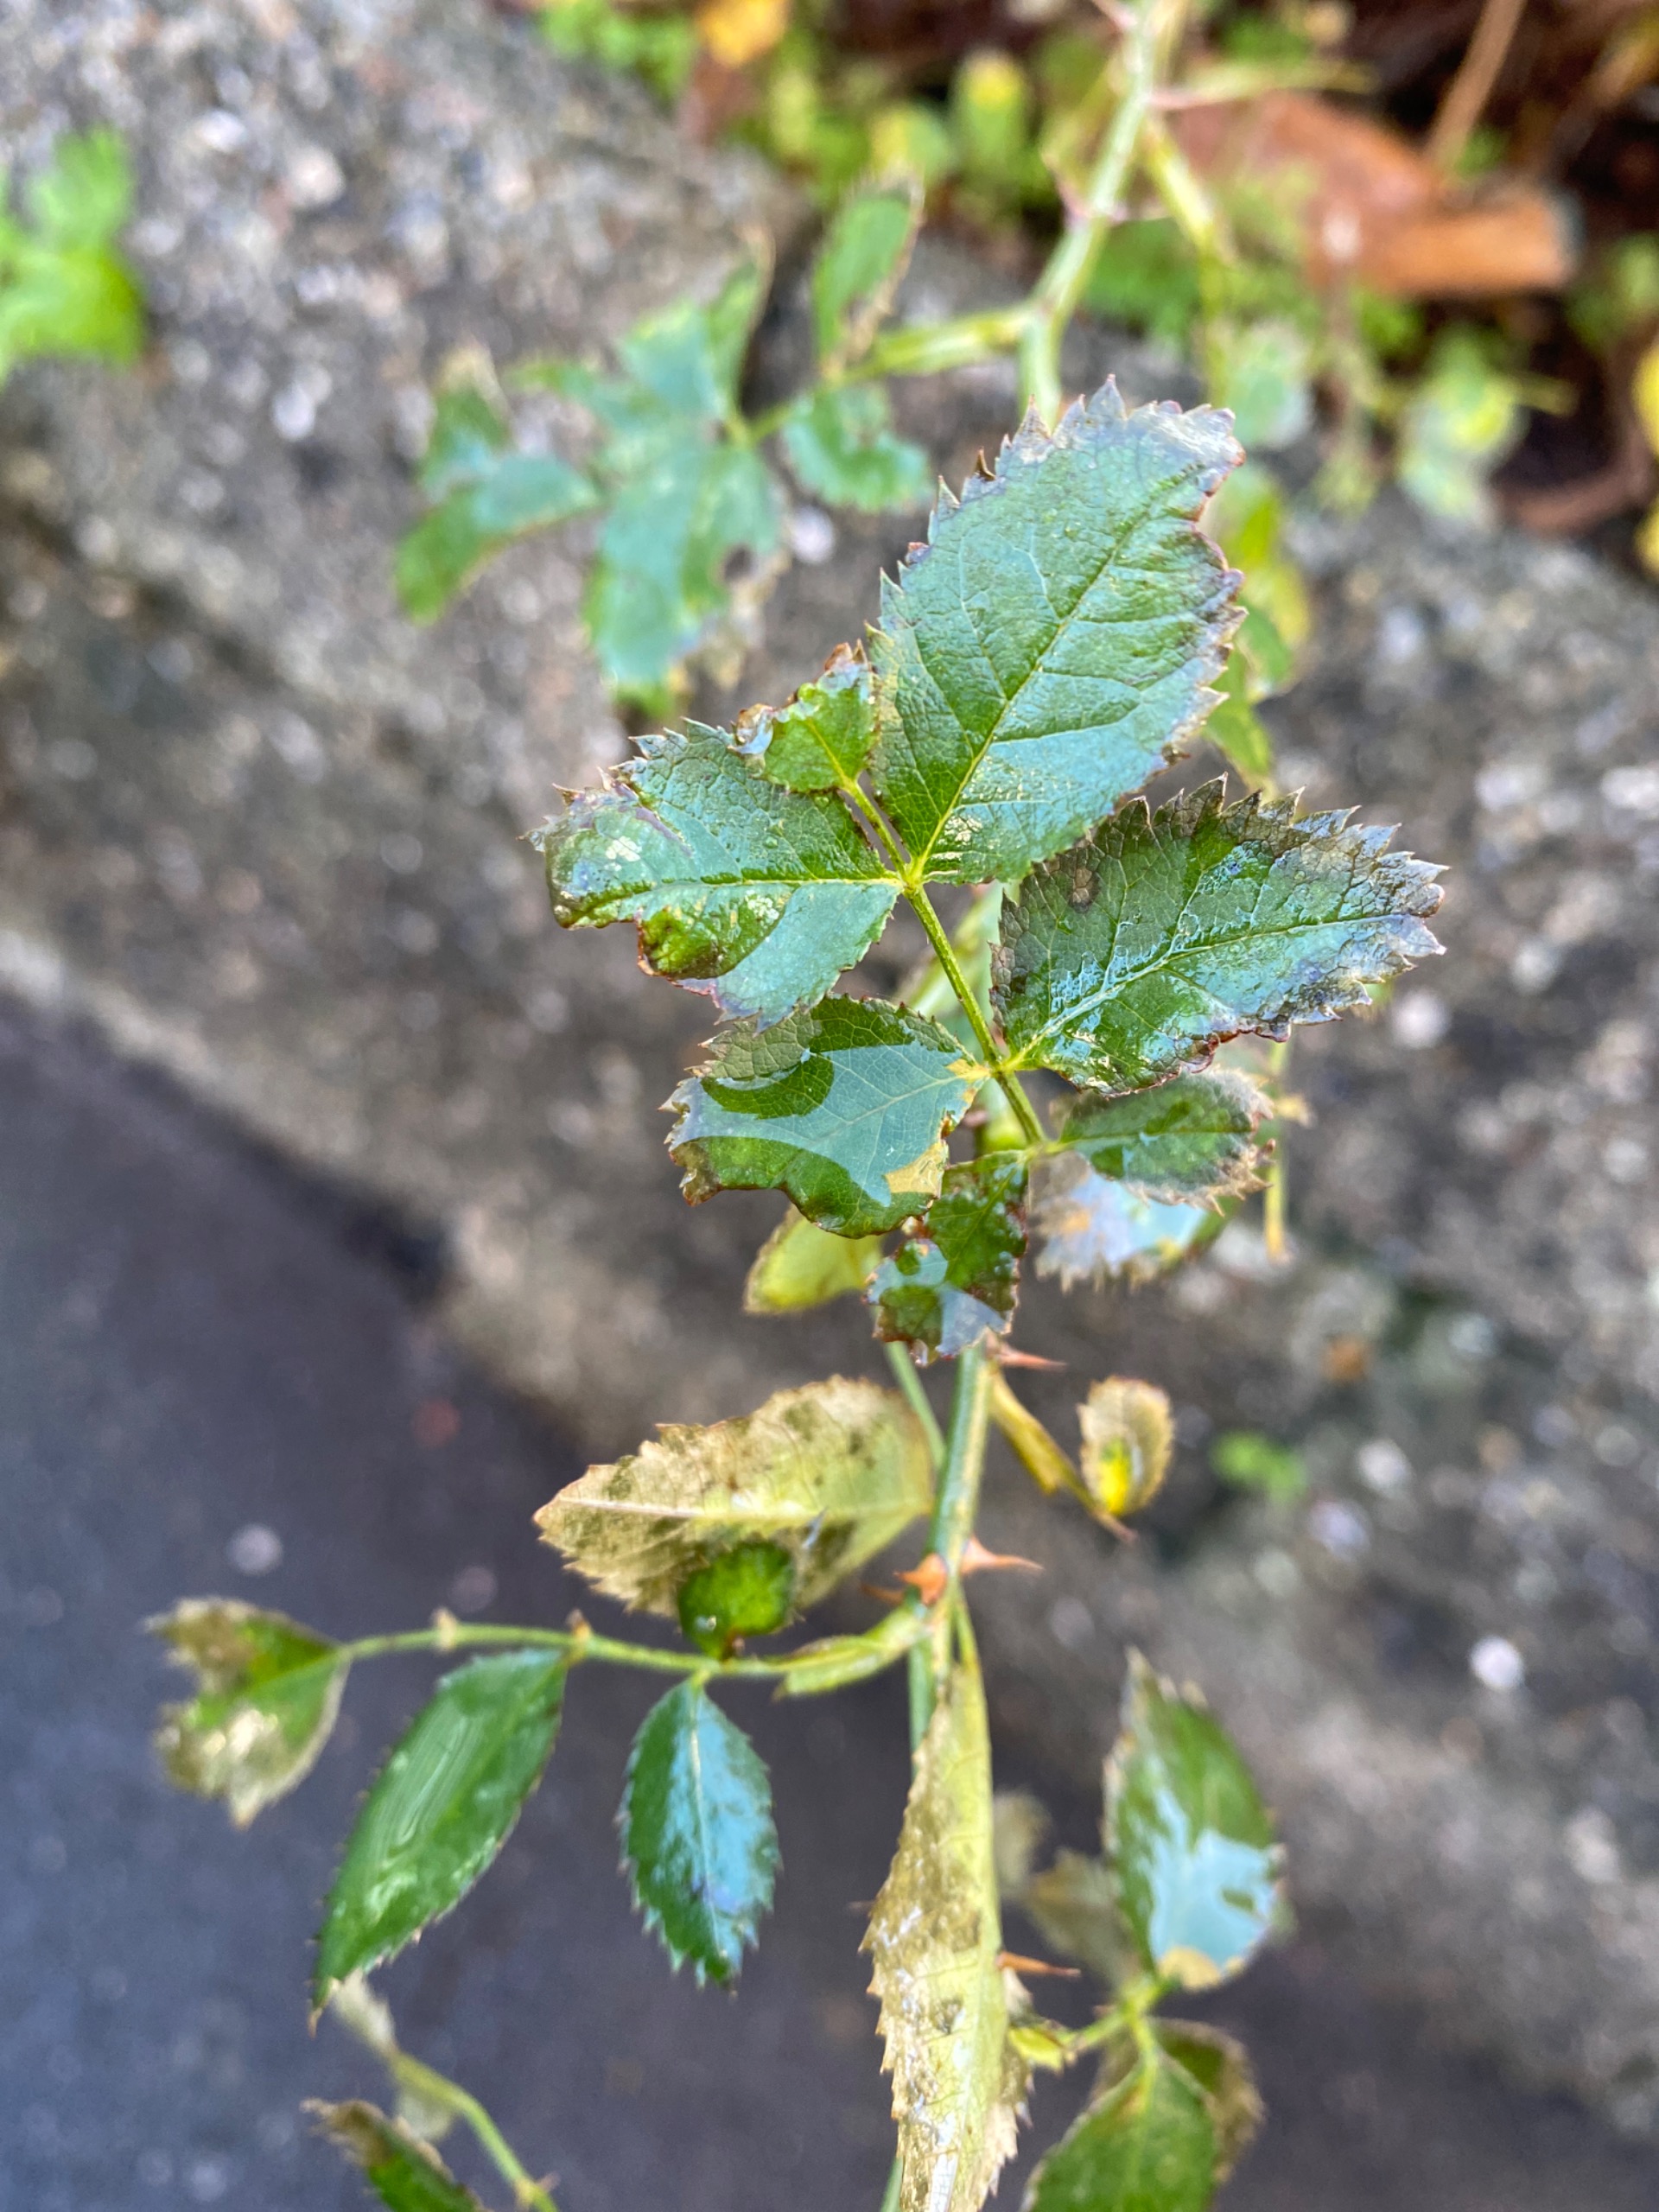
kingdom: Plantae
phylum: Tracheophyta
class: Magnoliopsida
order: Rosales
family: Rosaceae
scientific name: Rosaceae
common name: Rosenfamilien
